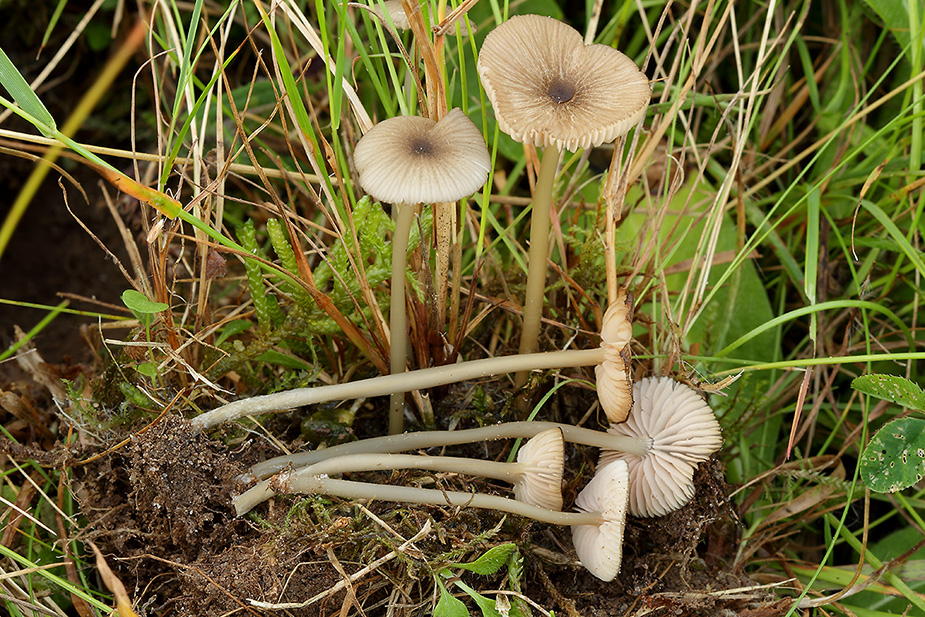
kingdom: Fungi
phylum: Basidiomycota
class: Agaricomycetes
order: Agaricales
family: Entolomataceae
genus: Entoloma
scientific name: Entoloma exile
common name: rødplettet rødblad
